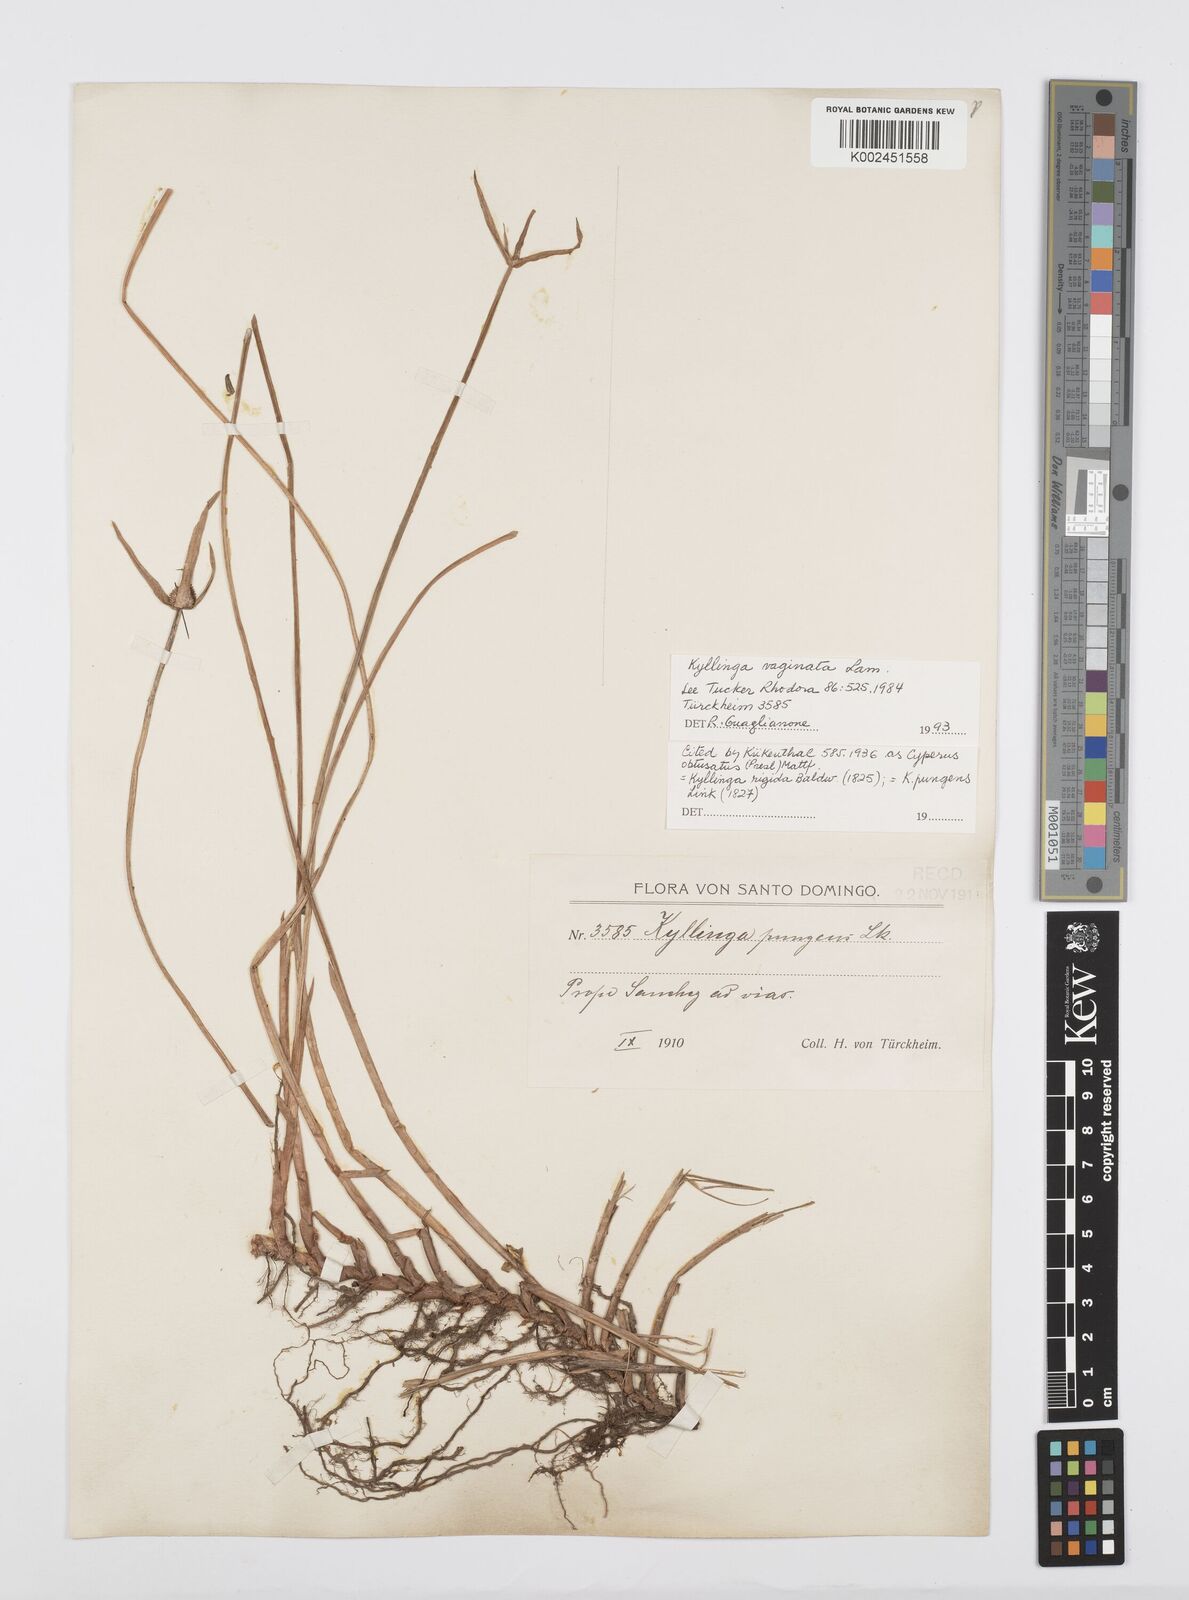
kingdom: Plantae
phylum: Tracheophyta
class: Liliopsida
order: Poales
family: Cyperaceae
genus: Cyperus
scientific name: Cyperus obtusatus
